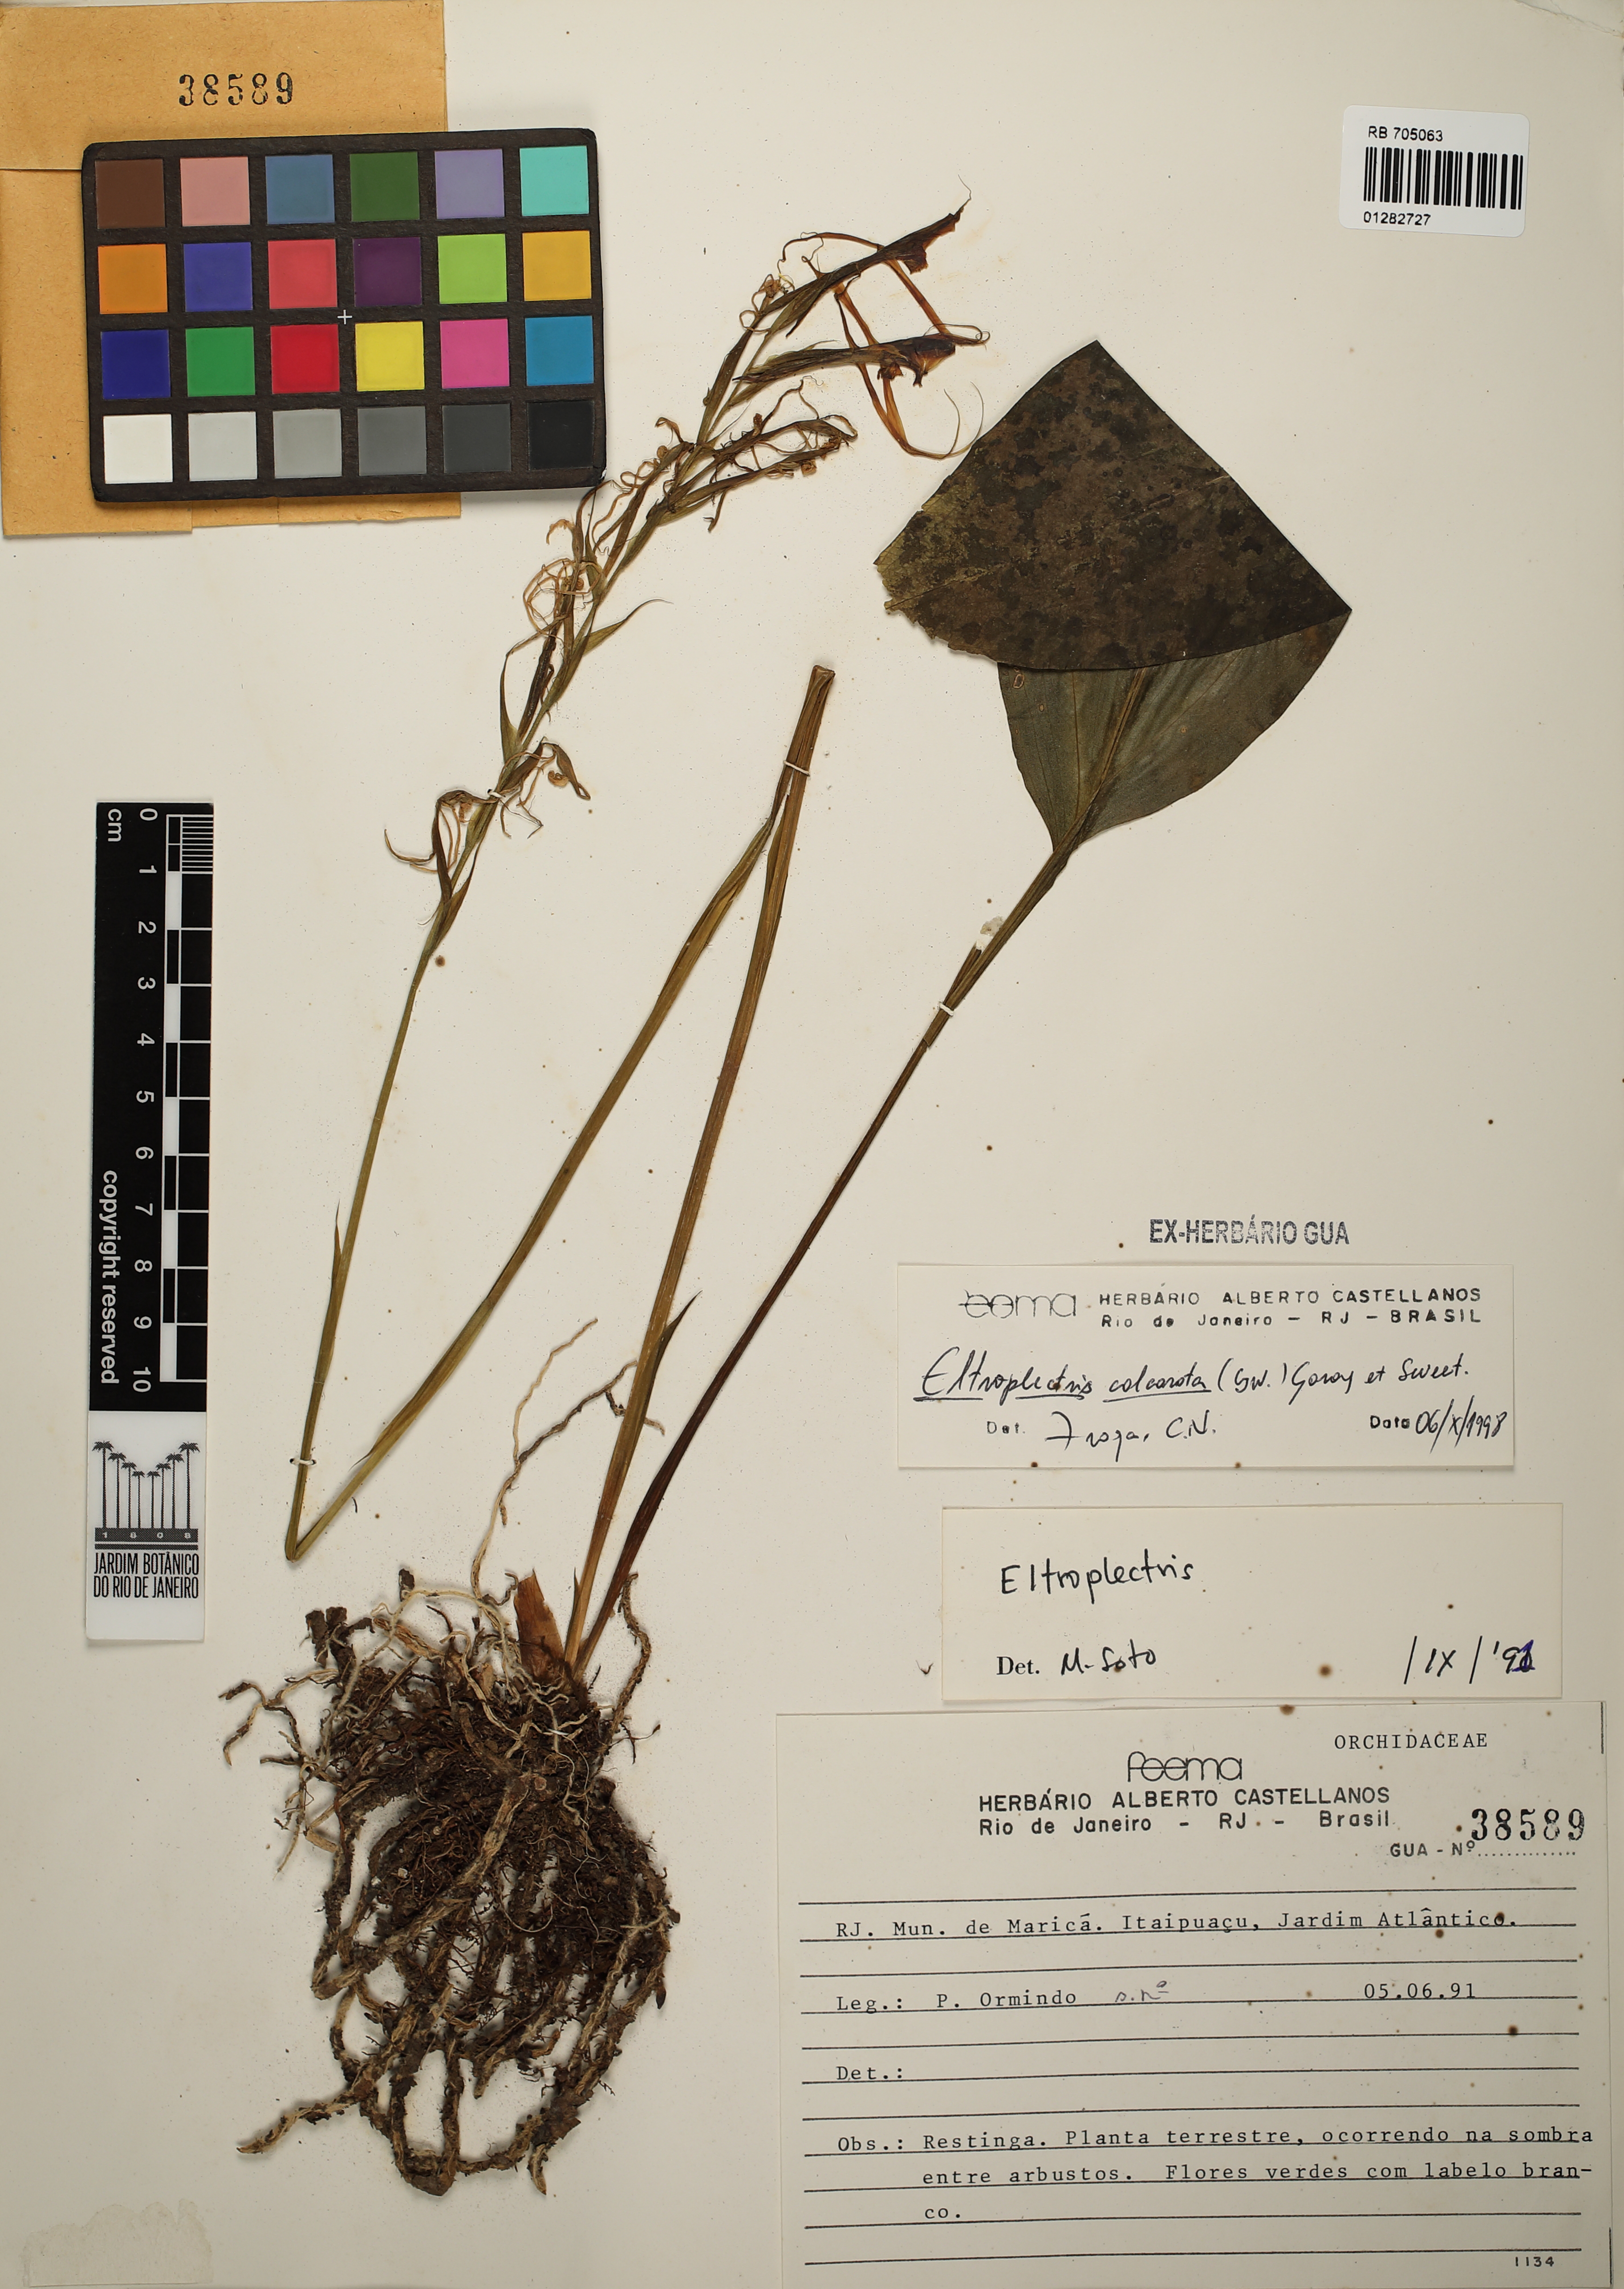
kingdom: Plantae
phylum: Tracheophyta
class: Liliopsida
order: Asparagales
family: Orchidaceae
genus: Eltroplectris
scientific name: Eltroplectris calcarata
